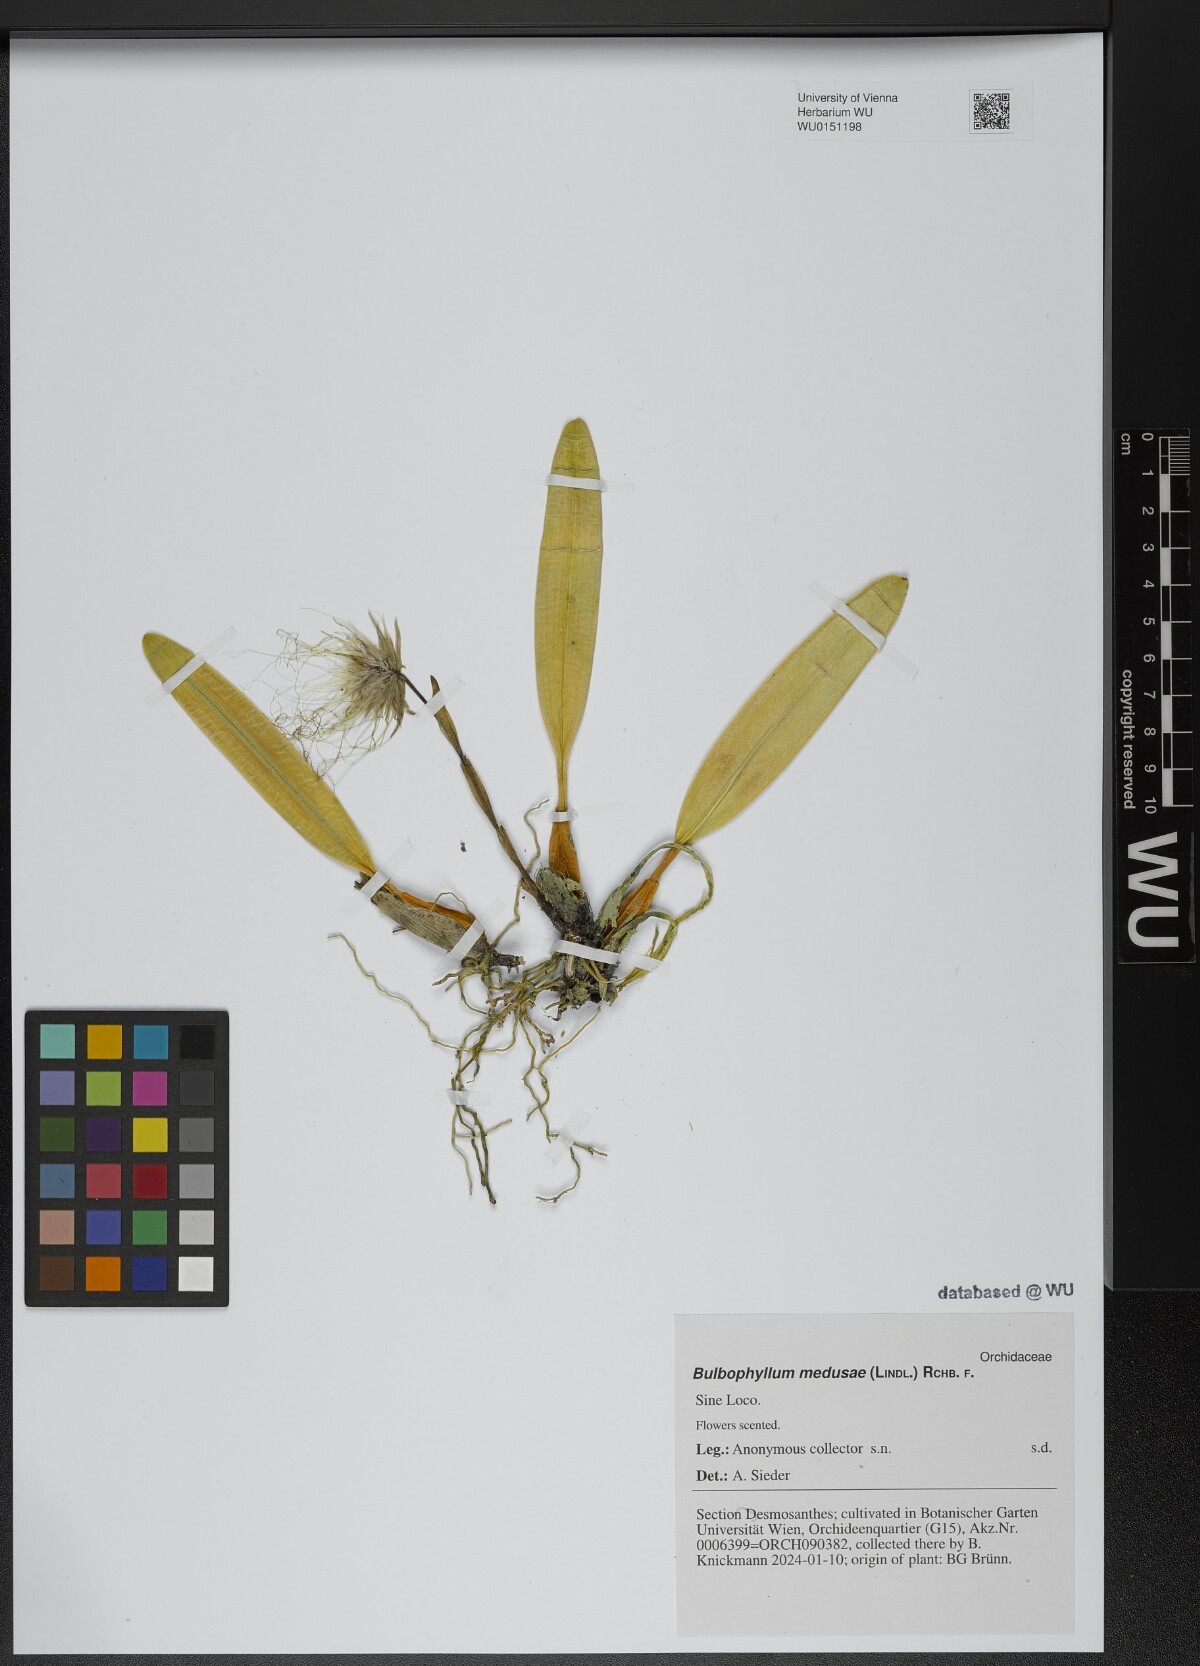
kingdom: Plantae
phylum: Tracheophyta
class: Liliopsida
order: Asparagales
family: Orchidaceae
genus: Bulbophyllum
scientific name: Bulbophyllum medusae
